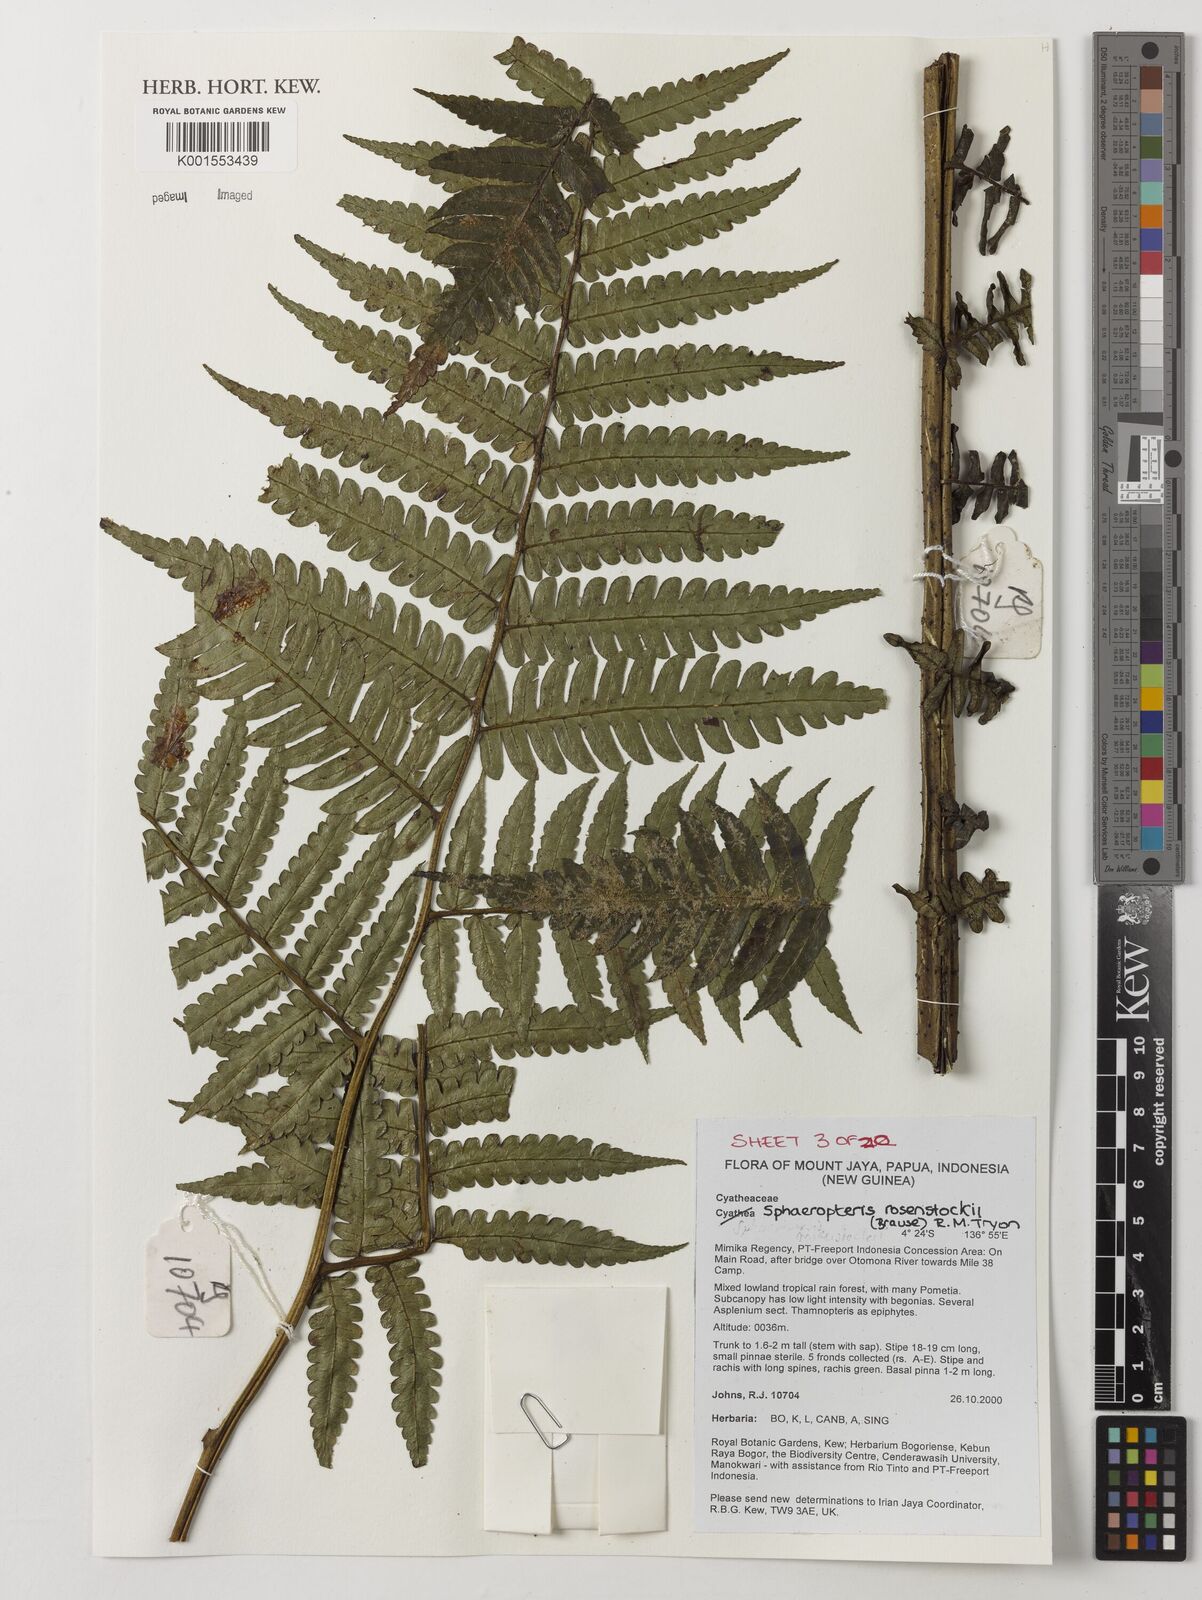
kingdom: Plantae
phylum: Tracheophyta
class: Polypodiopsida
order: Cyatheales
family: Cyatheaceae
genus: Sphaeropteris
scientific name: Sphaeropteris rosenstockii
